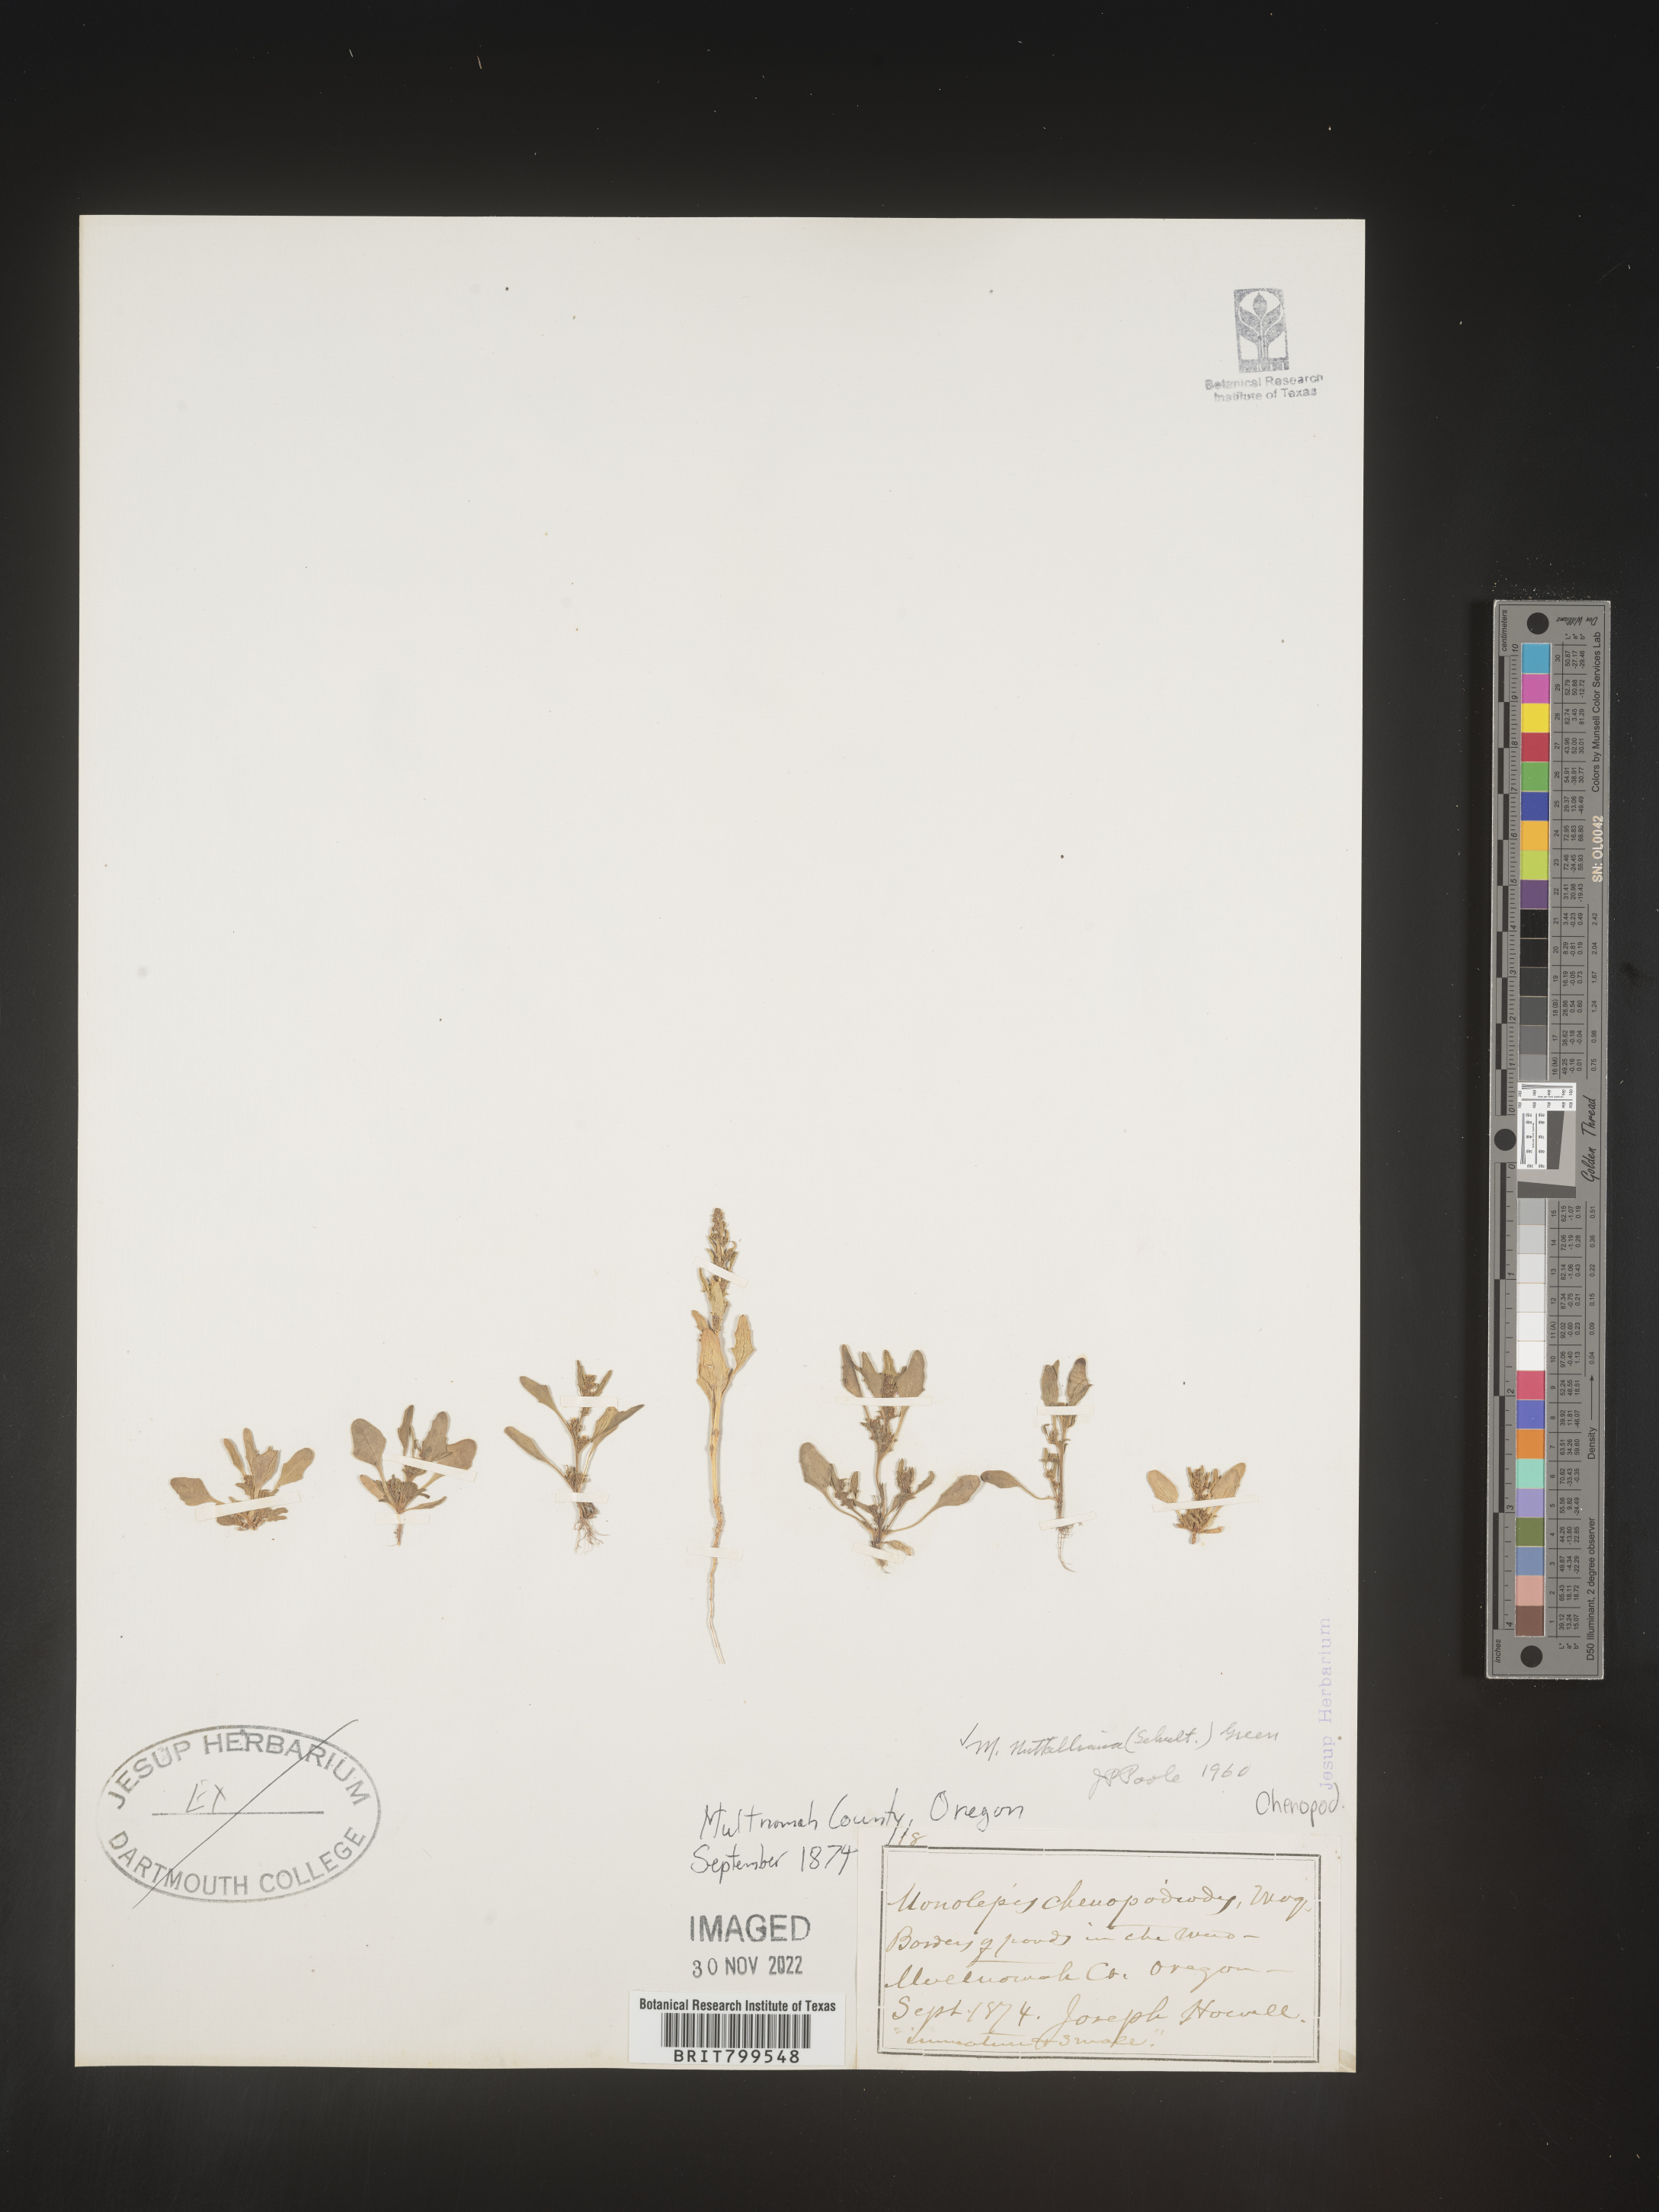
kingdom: Plantae
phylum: Tracheophyta
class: Magnoliopsida
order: Caryophyllales
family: Amaranthaceae
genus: Blitum
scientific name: Blitum
